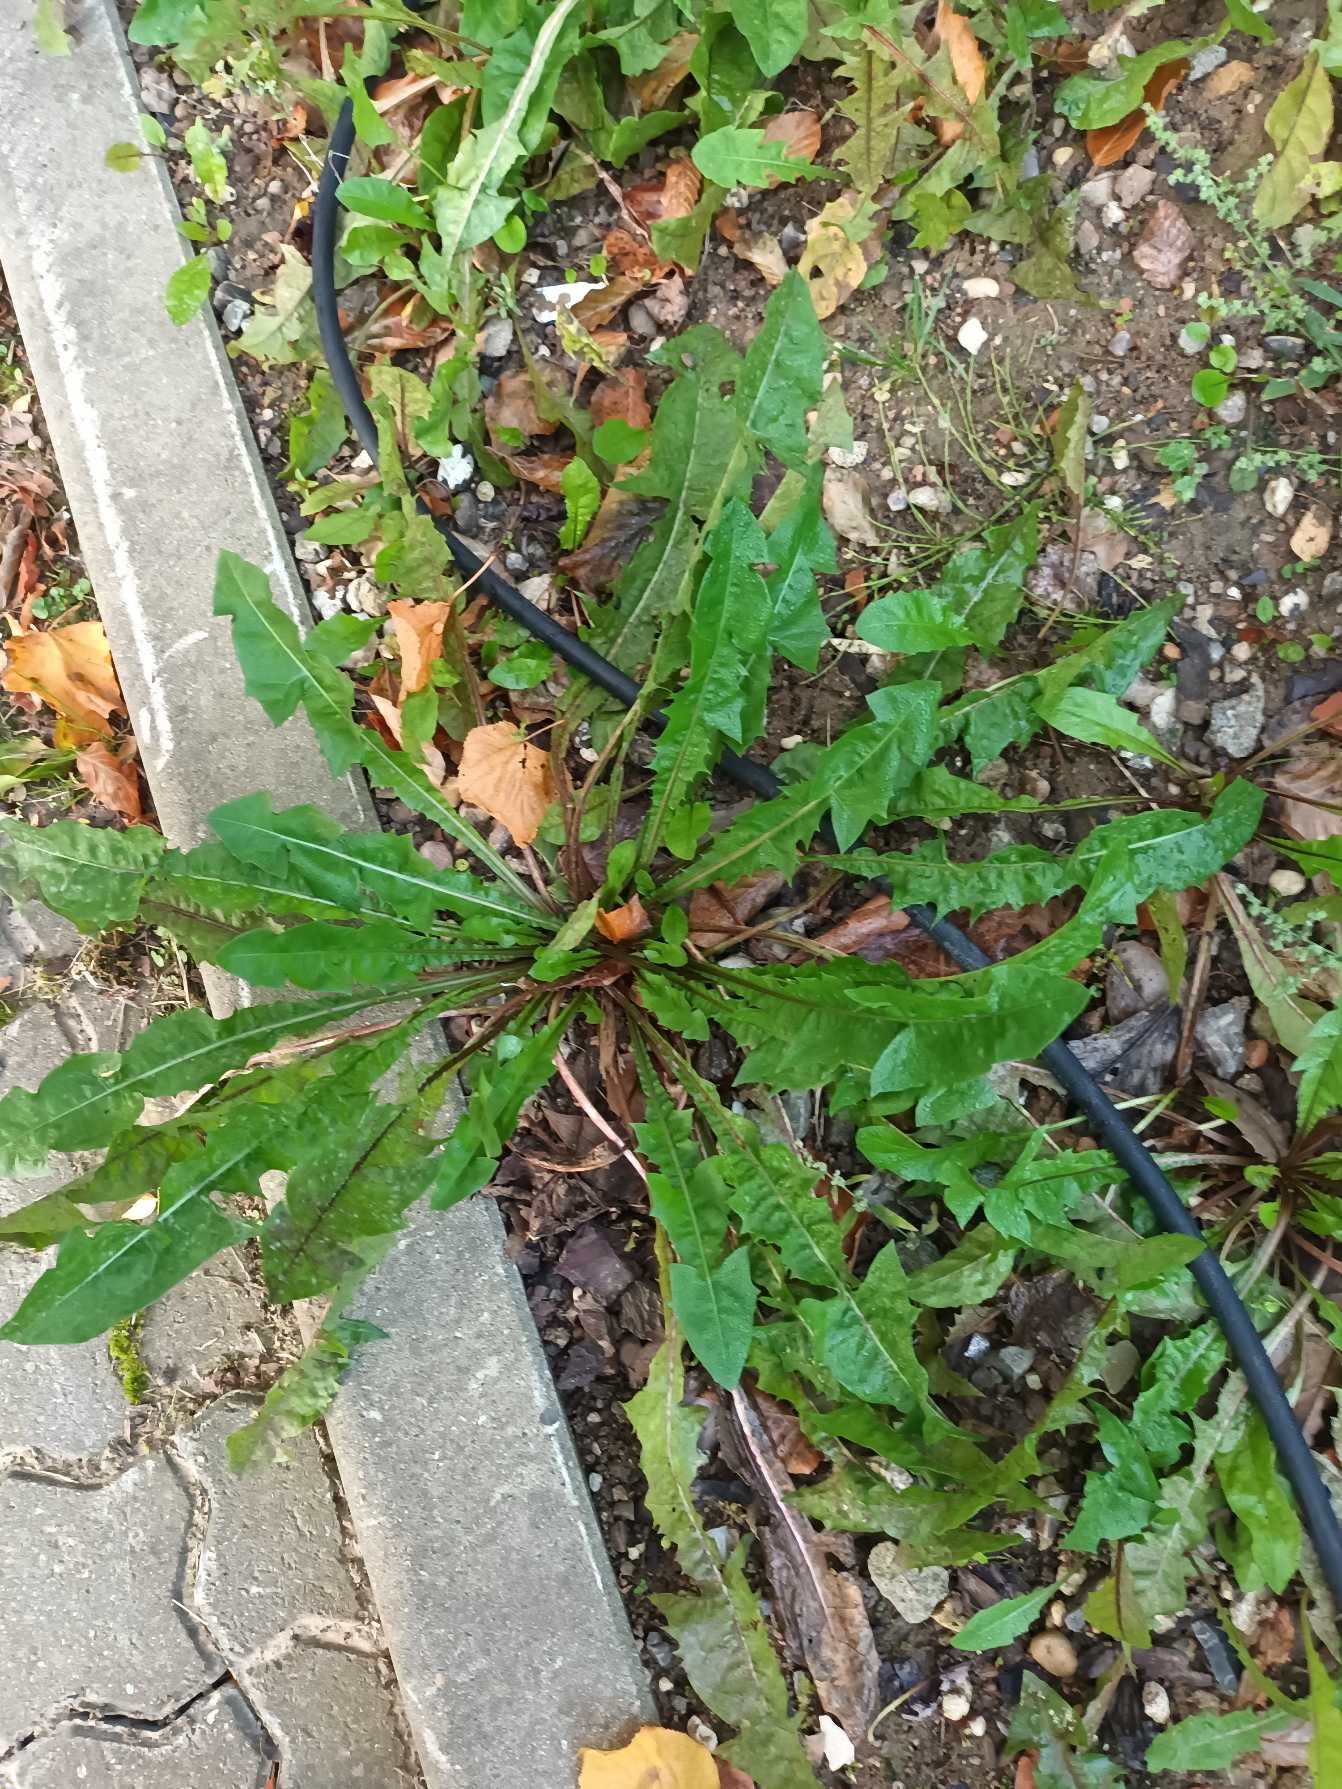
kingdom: Plantae
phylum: Tracheophyta
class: Magnoliopsida
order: Asterales
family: Asteraceae
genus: Taraxacum
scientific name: Taraxacum
